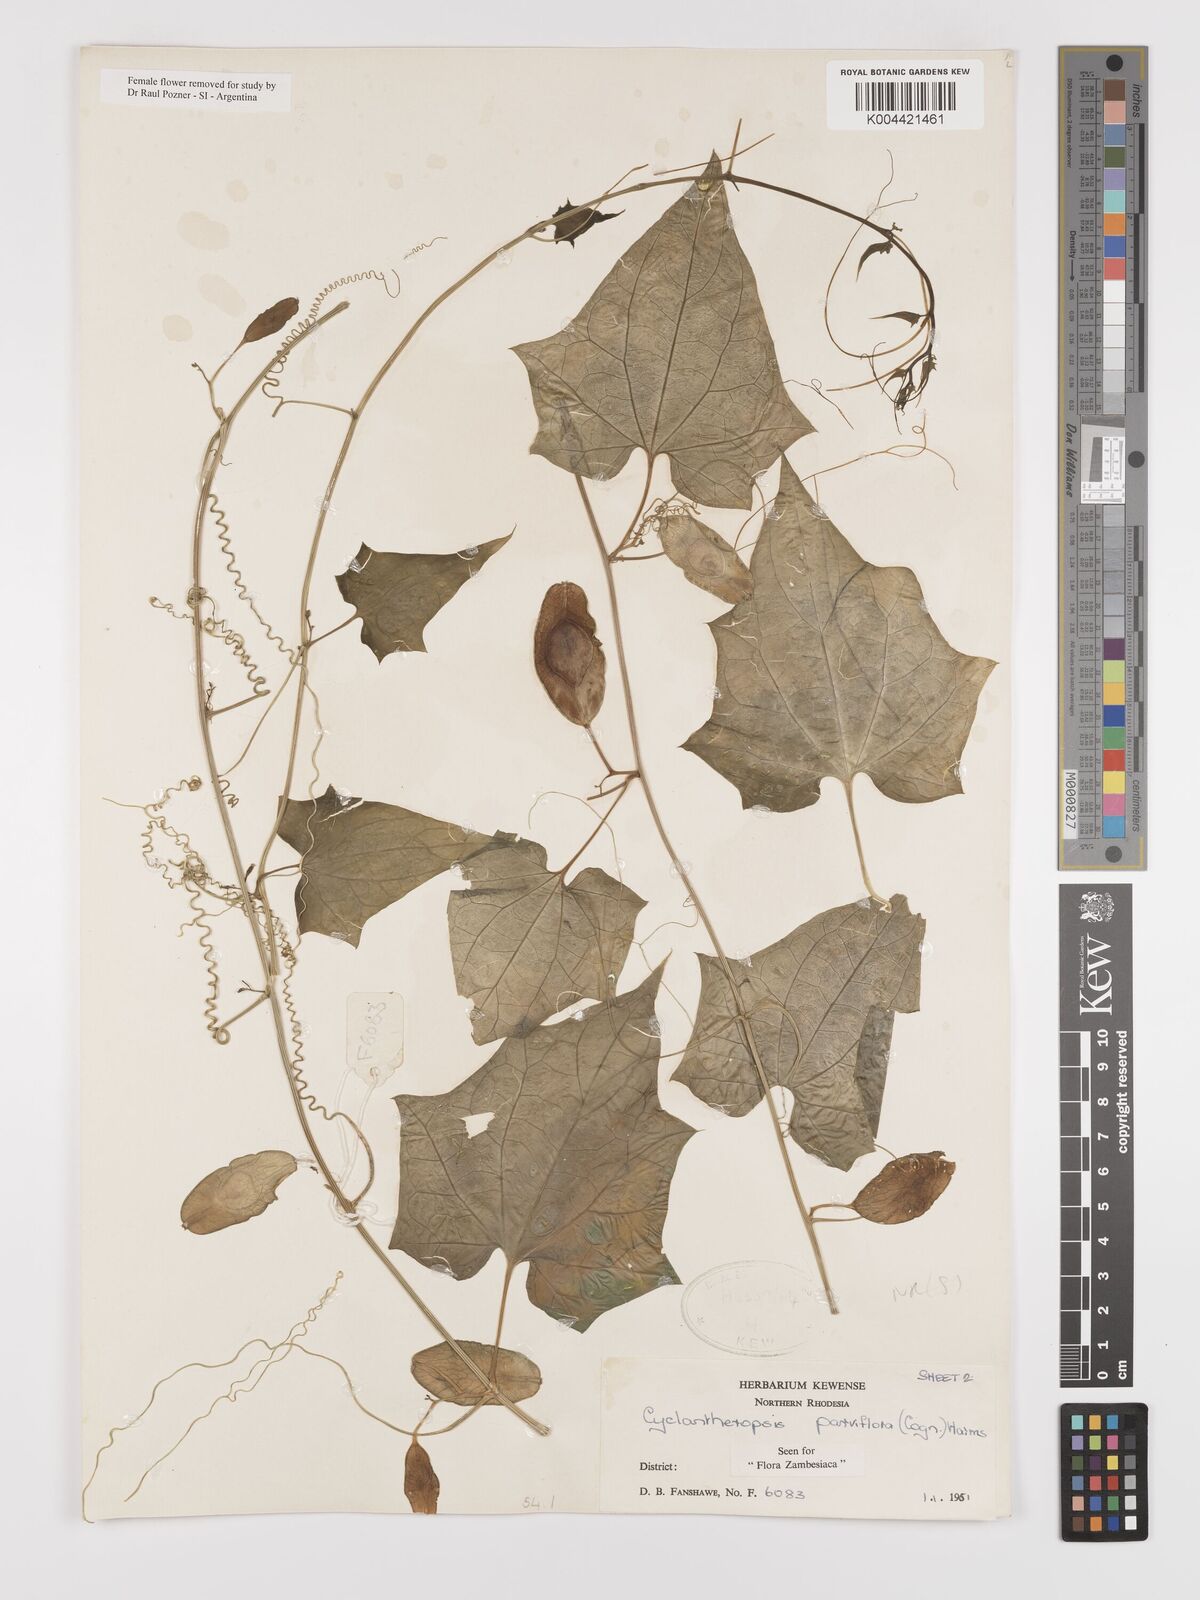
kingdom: Plantae
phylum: Tracheophyta
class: Magnoliopsida
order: Cucurbitales
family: Cucurbitaceae
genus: Cyclantheropsis
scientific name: Cyclantheropsis parviflora
